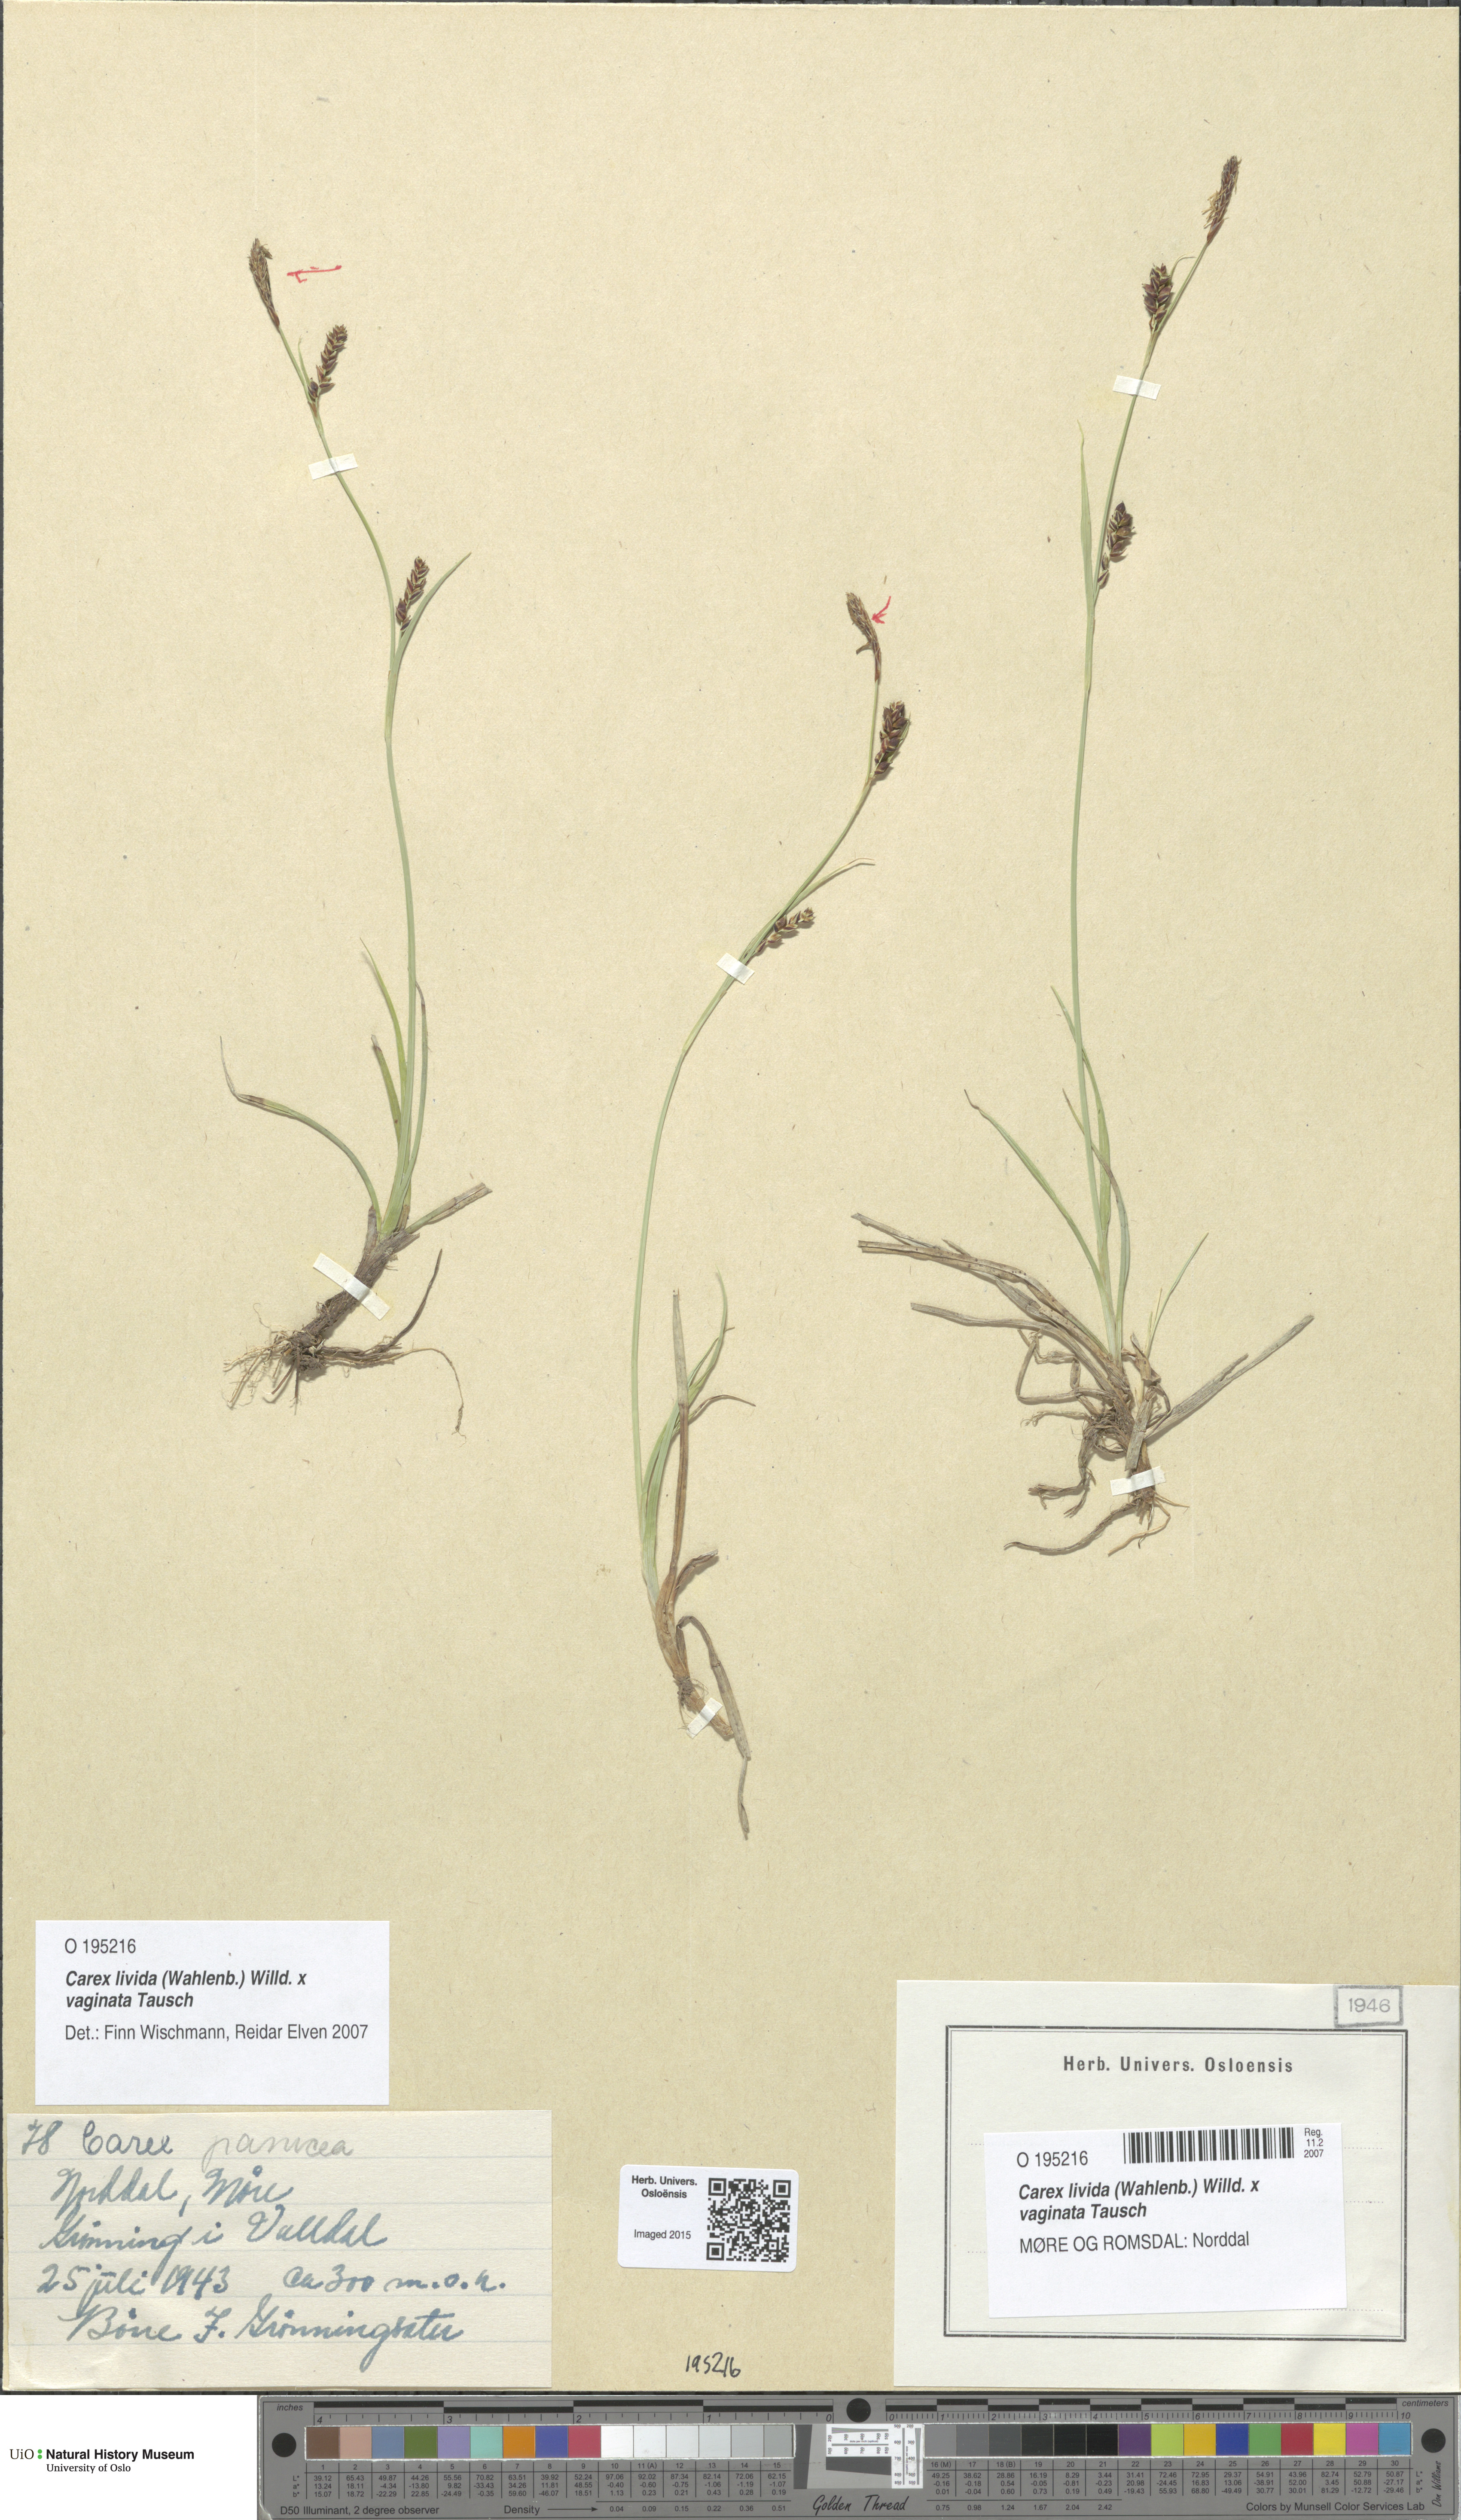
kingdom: Plantae
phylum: Tracheophyta
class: Liliopsida
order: Poales
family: Cyperaceae
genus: Carex
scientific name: Carex
